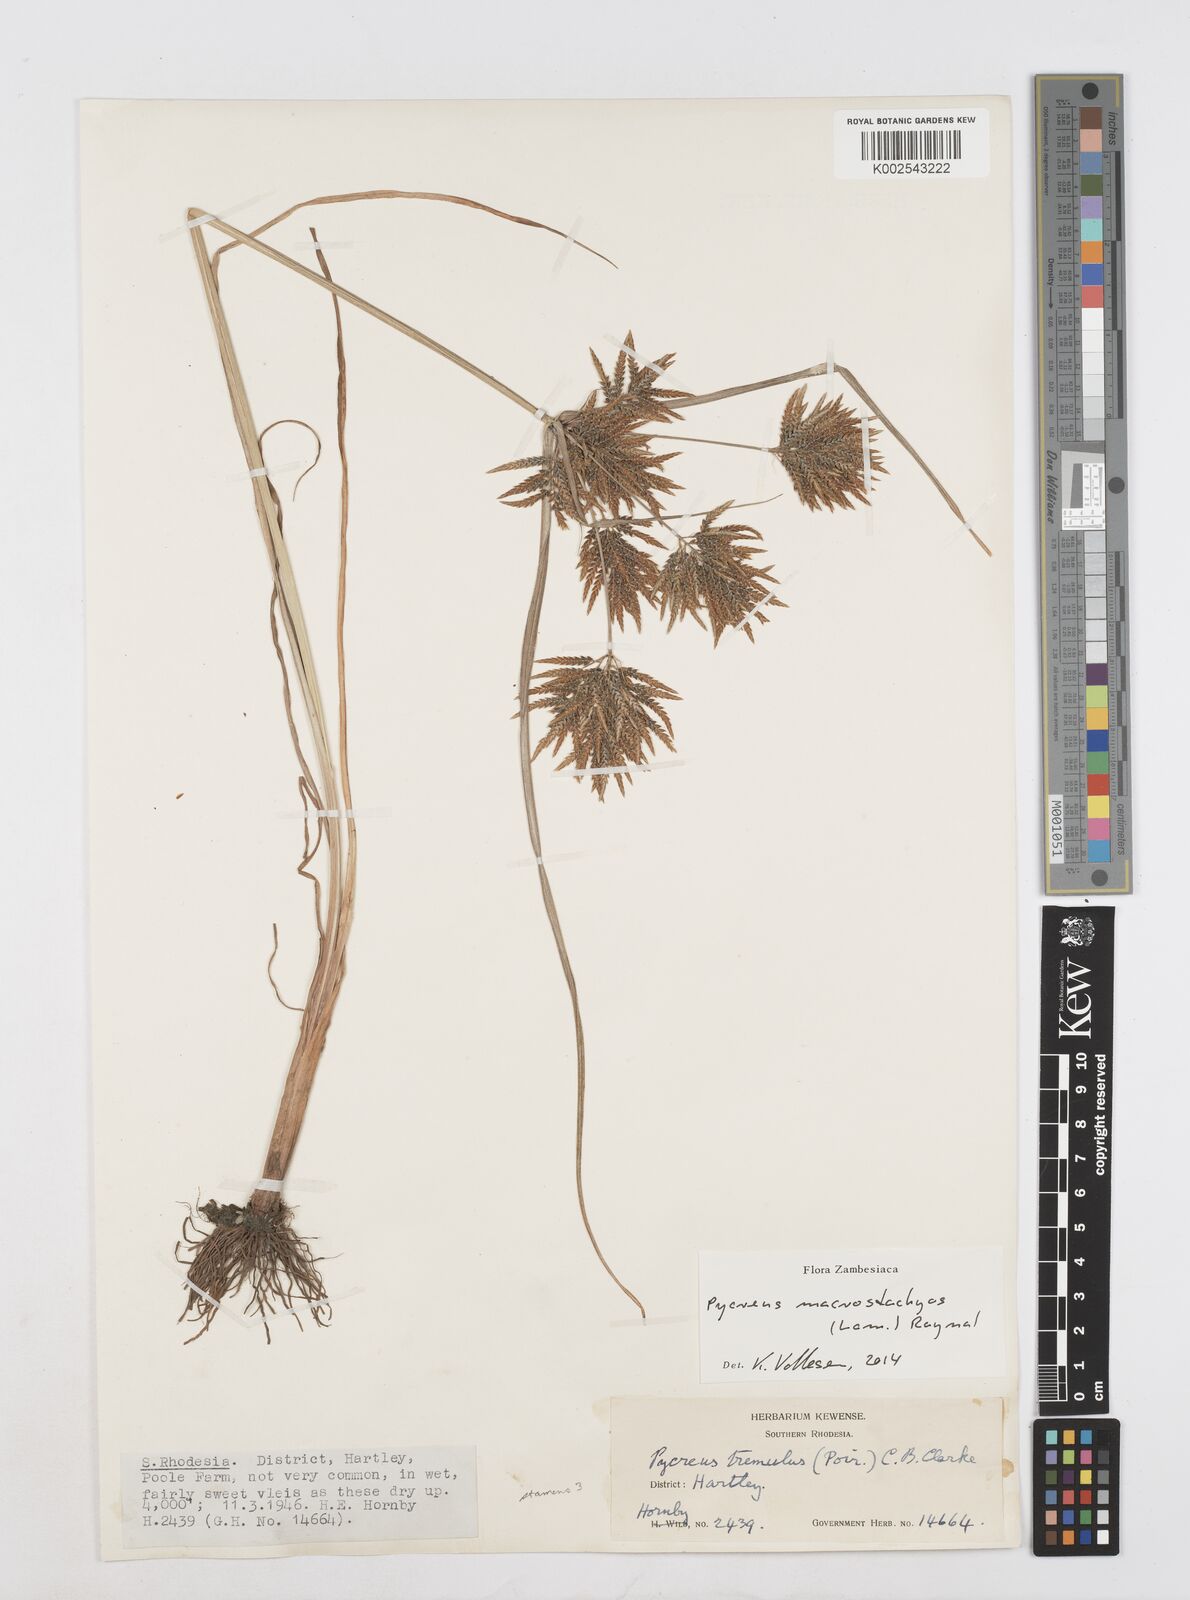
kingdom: Plantae
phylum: Tracheophyta
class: Liliopsida
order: Poales
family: Cyperaceae
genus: Cyperus
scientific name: Cyperus macrostachyos
